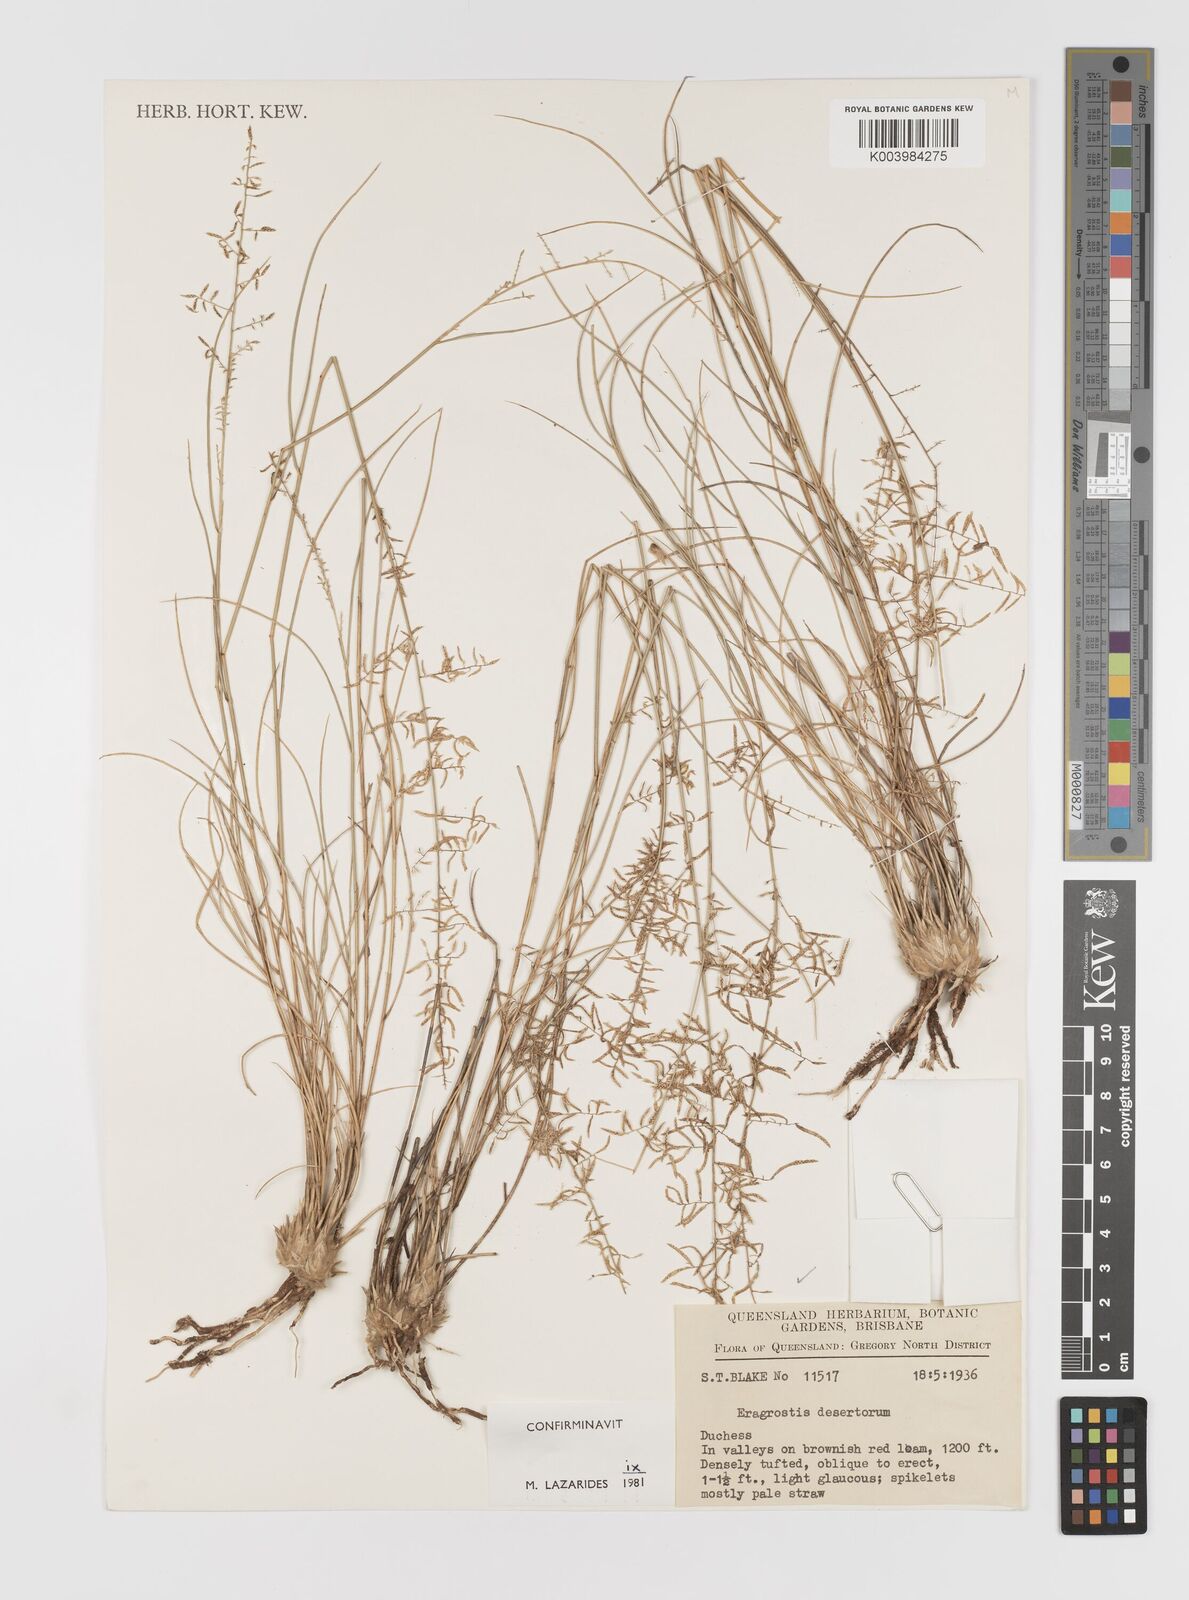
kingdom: Plantae
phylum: Tracheophyta
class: Liliopsida
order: Poales
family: Poaceae
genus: Eragrostis
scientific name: Eragrostis desertorum
